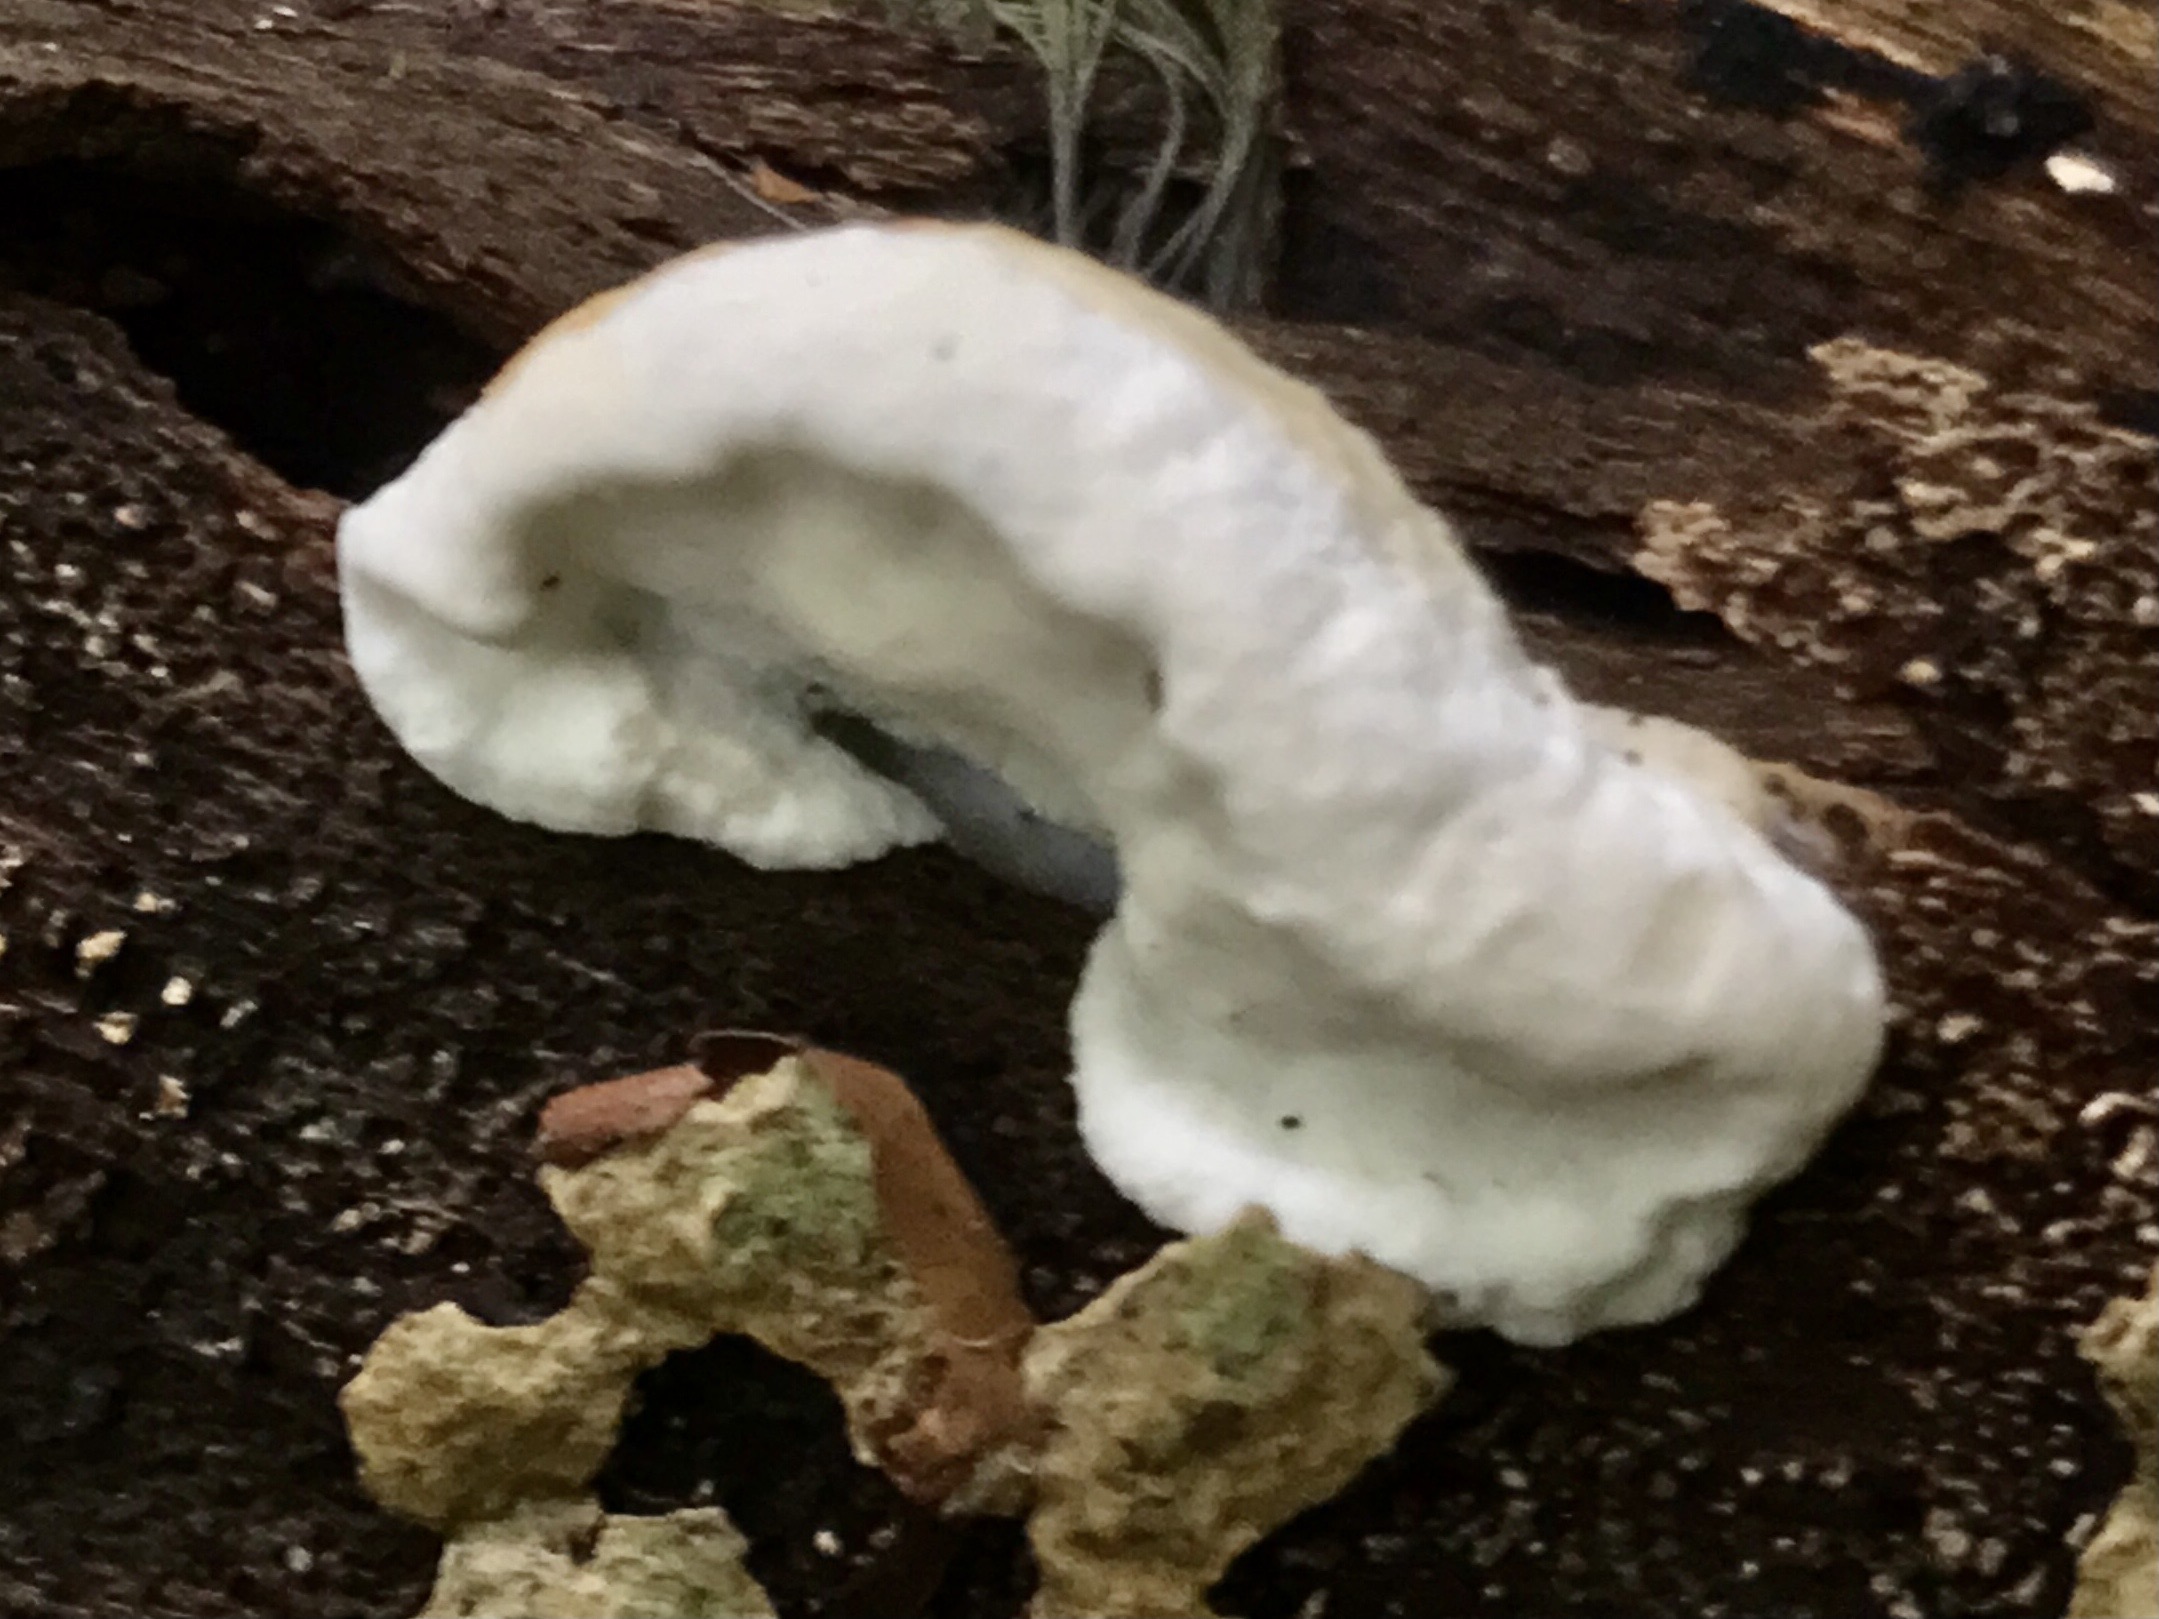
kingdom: Fungi
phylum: Basidiomycota
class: Agaricomycetes
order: Polyporales
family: Incrustoporiaceae
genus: Skeletocutis
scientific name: Skeletocutis nemoralis
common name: stor krystalporesvamp
